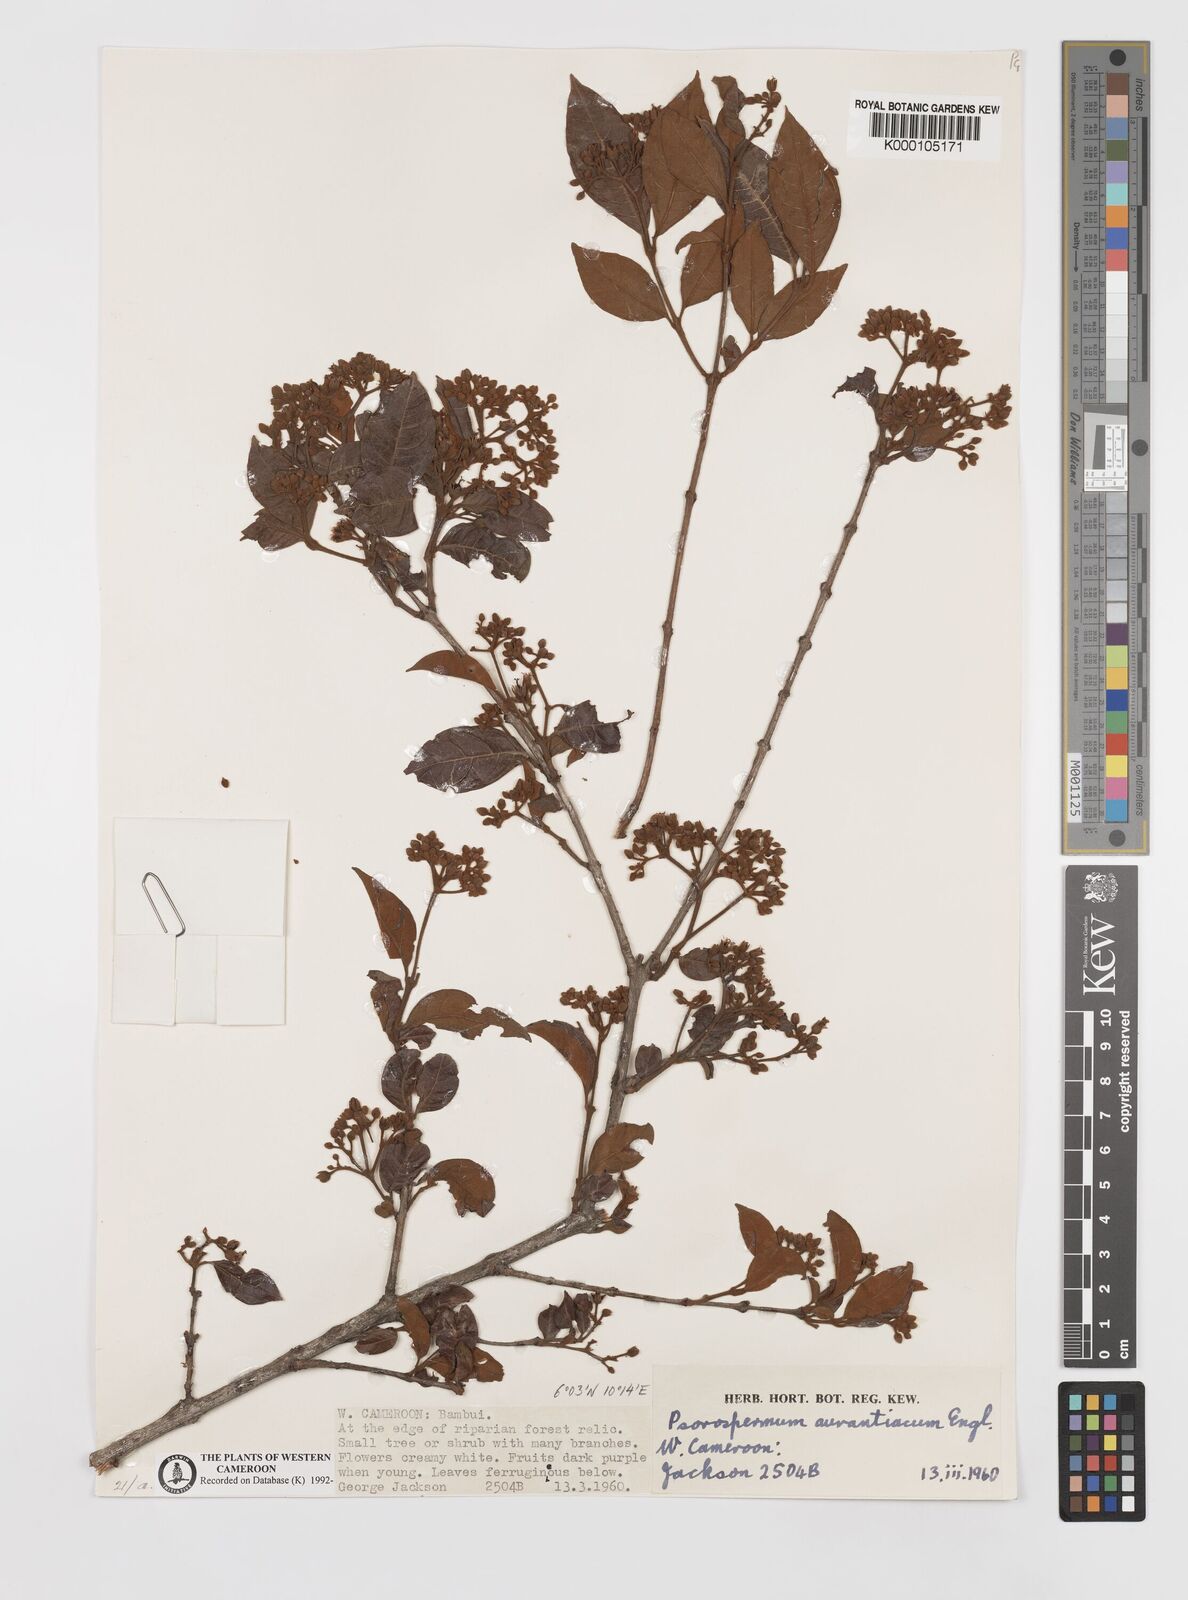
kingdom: Plantae
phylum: Tracheophyta
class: Magnoliopsida
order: Malpighiales
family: Hypericaceae
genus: Psorospermum
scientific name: Psorospermum aurantiacum
